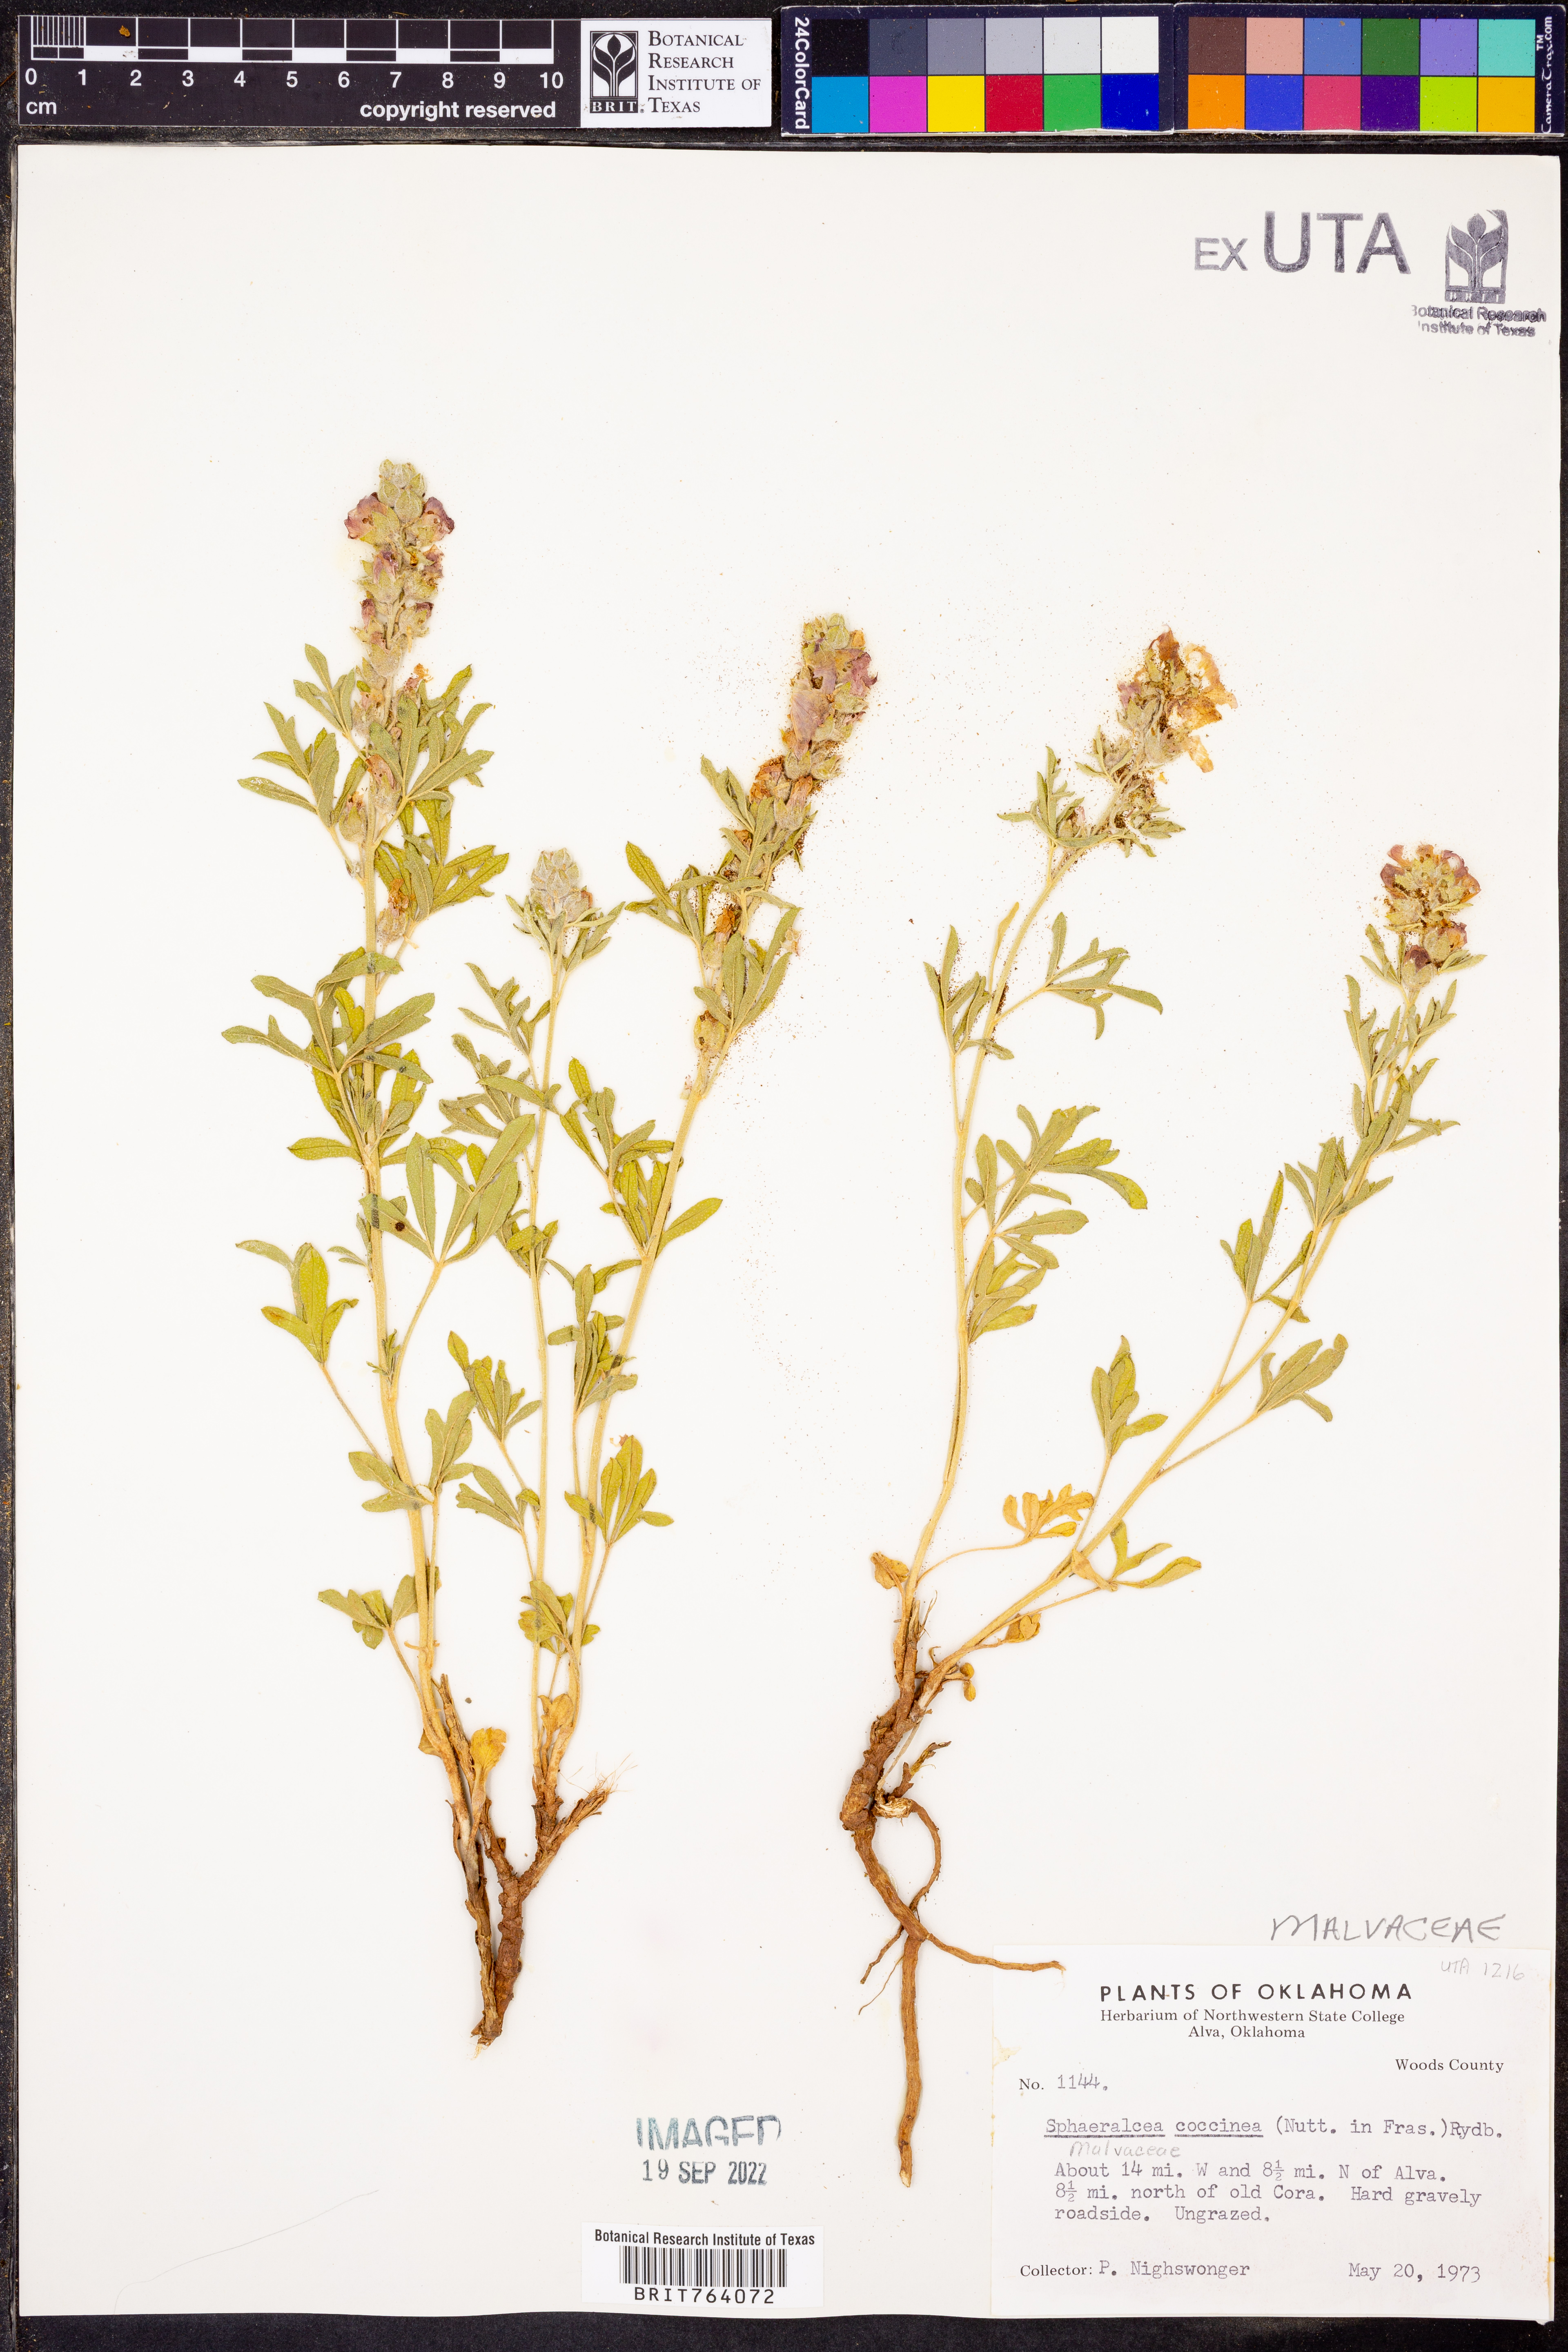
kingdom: Plantae
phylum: Tracheophyta
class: Magnoliopsida
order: Malvales
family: Malvaceae
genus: Sphaeralcea
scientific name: Sphaeralcea coccinea
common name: Moss-rose
